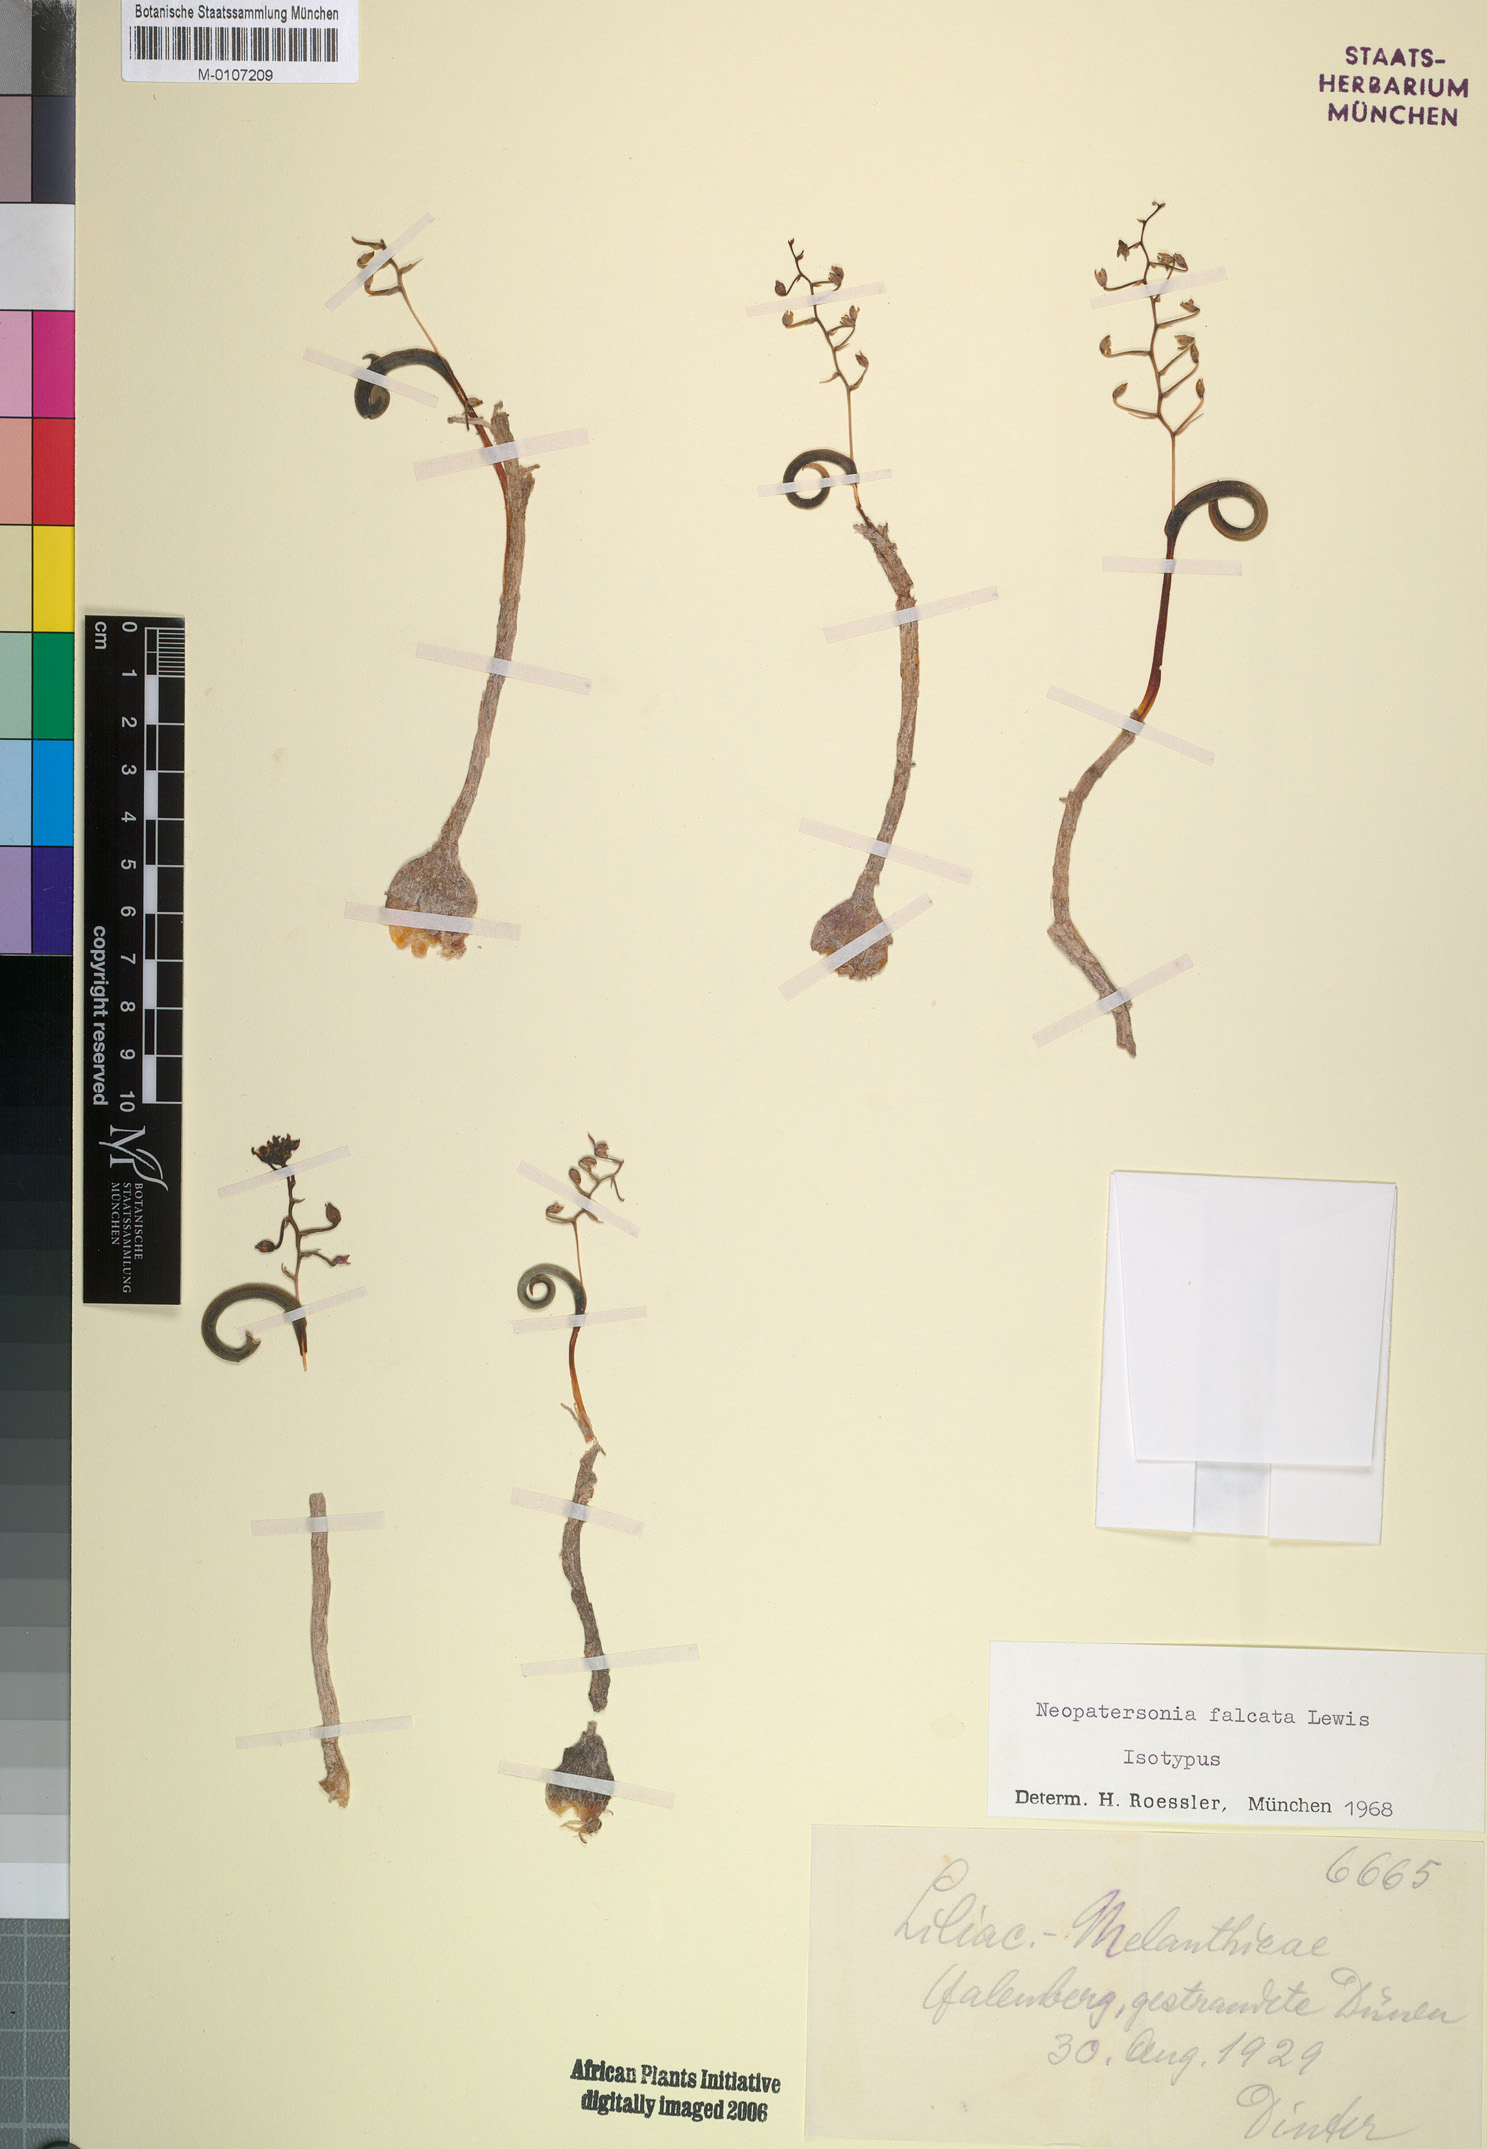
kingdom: Plantae
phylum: Tracheophyta
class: Liliopsida
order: Asparagales
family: Asparagaceae
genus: Ornithogalum
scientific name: Ornithogalum falcatum
